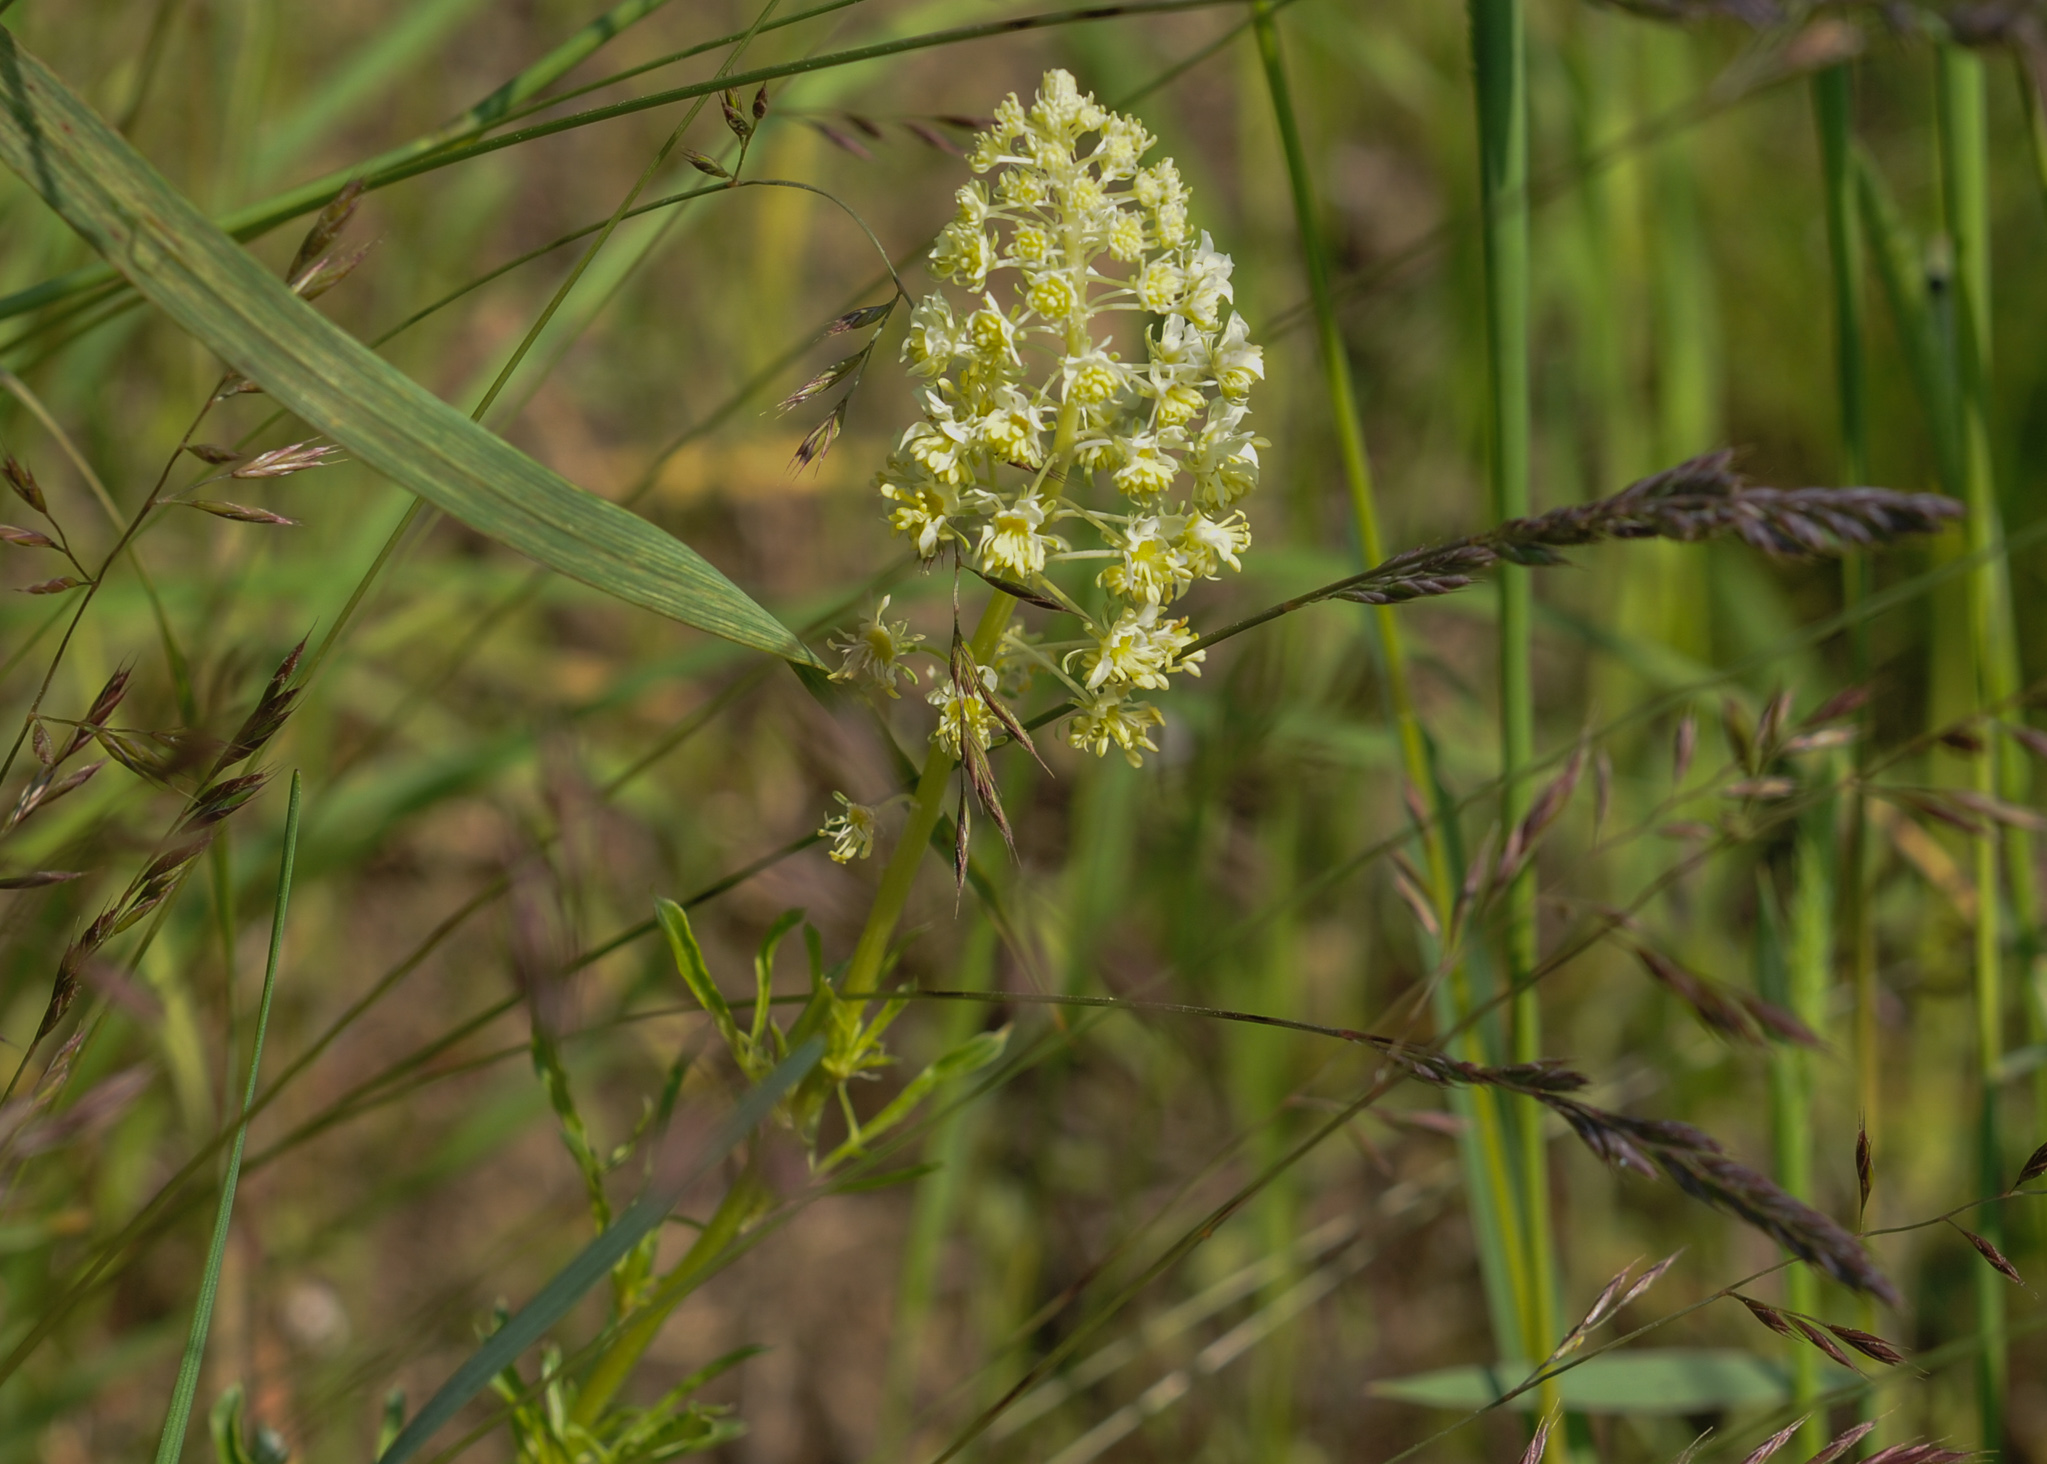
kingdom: Plantae
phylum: Tracheophyta
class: Magnoliopsida
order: Brassicales
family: Resedaceae
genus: Reseda
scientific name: Reseda lutea
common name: Wild mignonette
